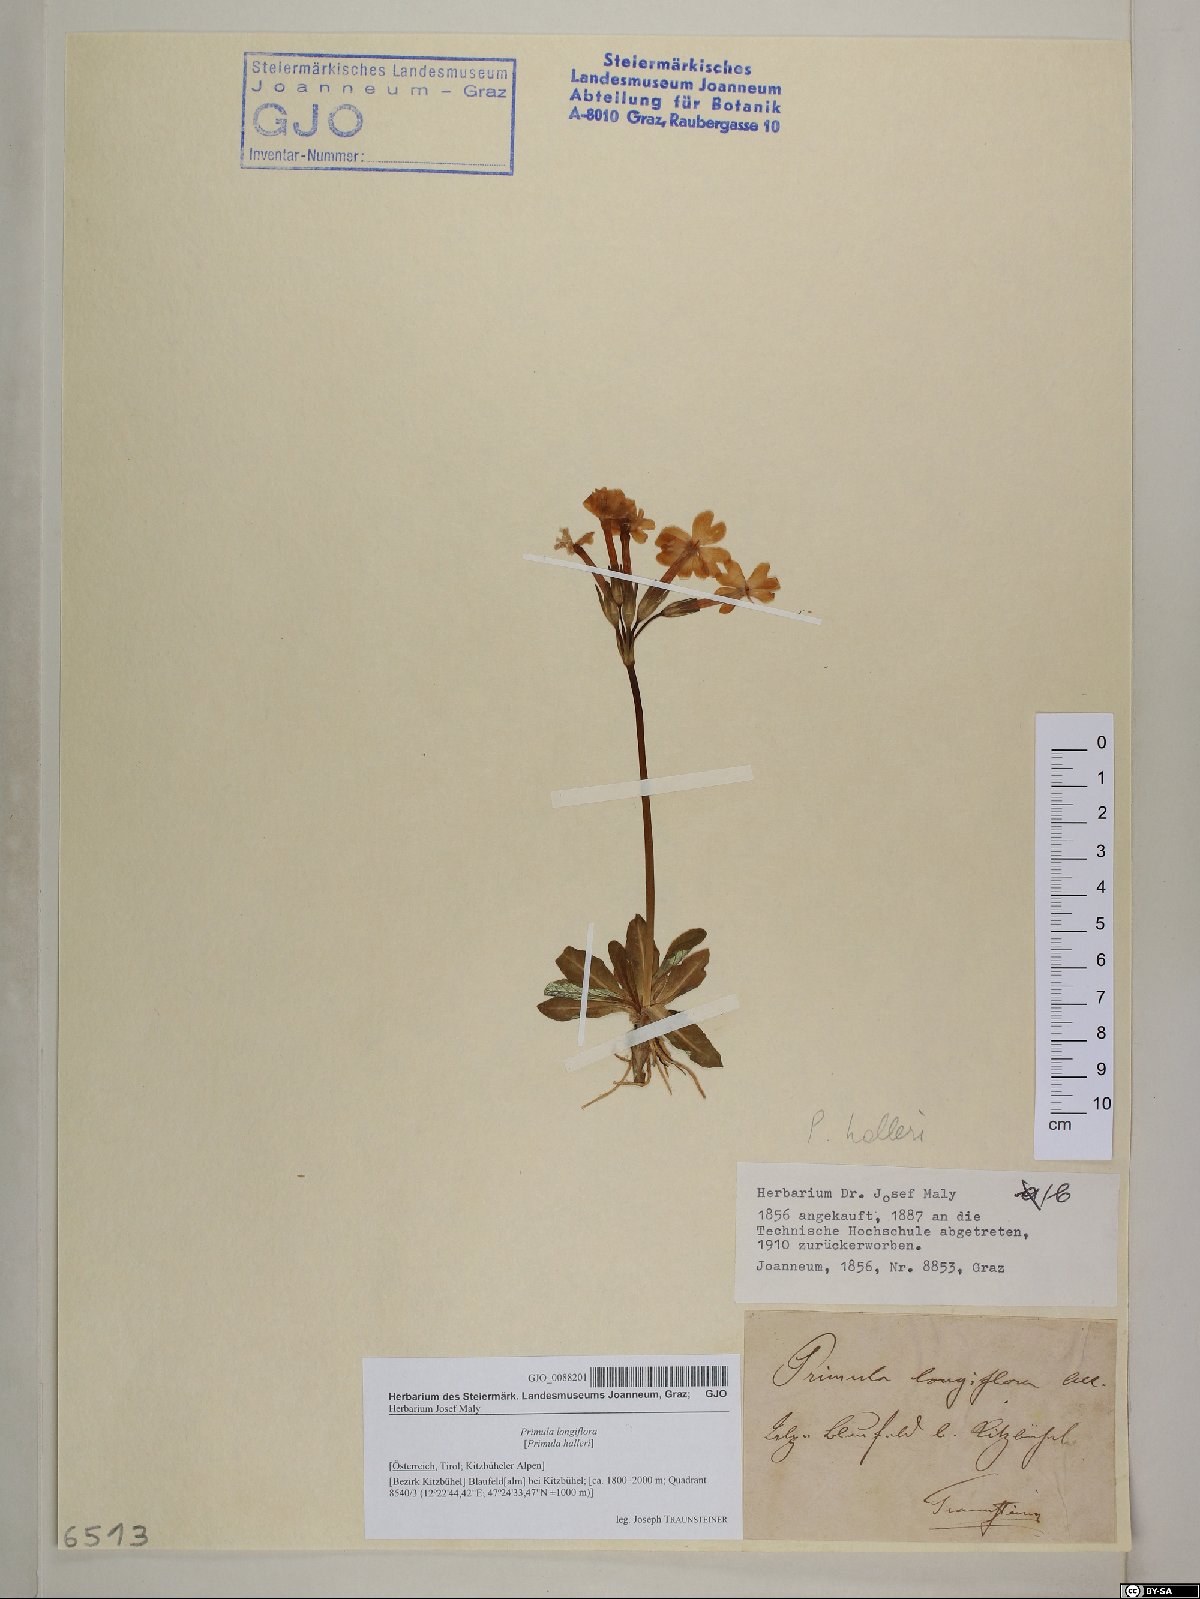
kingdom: Plantae
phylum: Tracheophyta
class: Magnoliopsida
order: Ericales
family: Primulaceae
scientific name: Primulaceae
